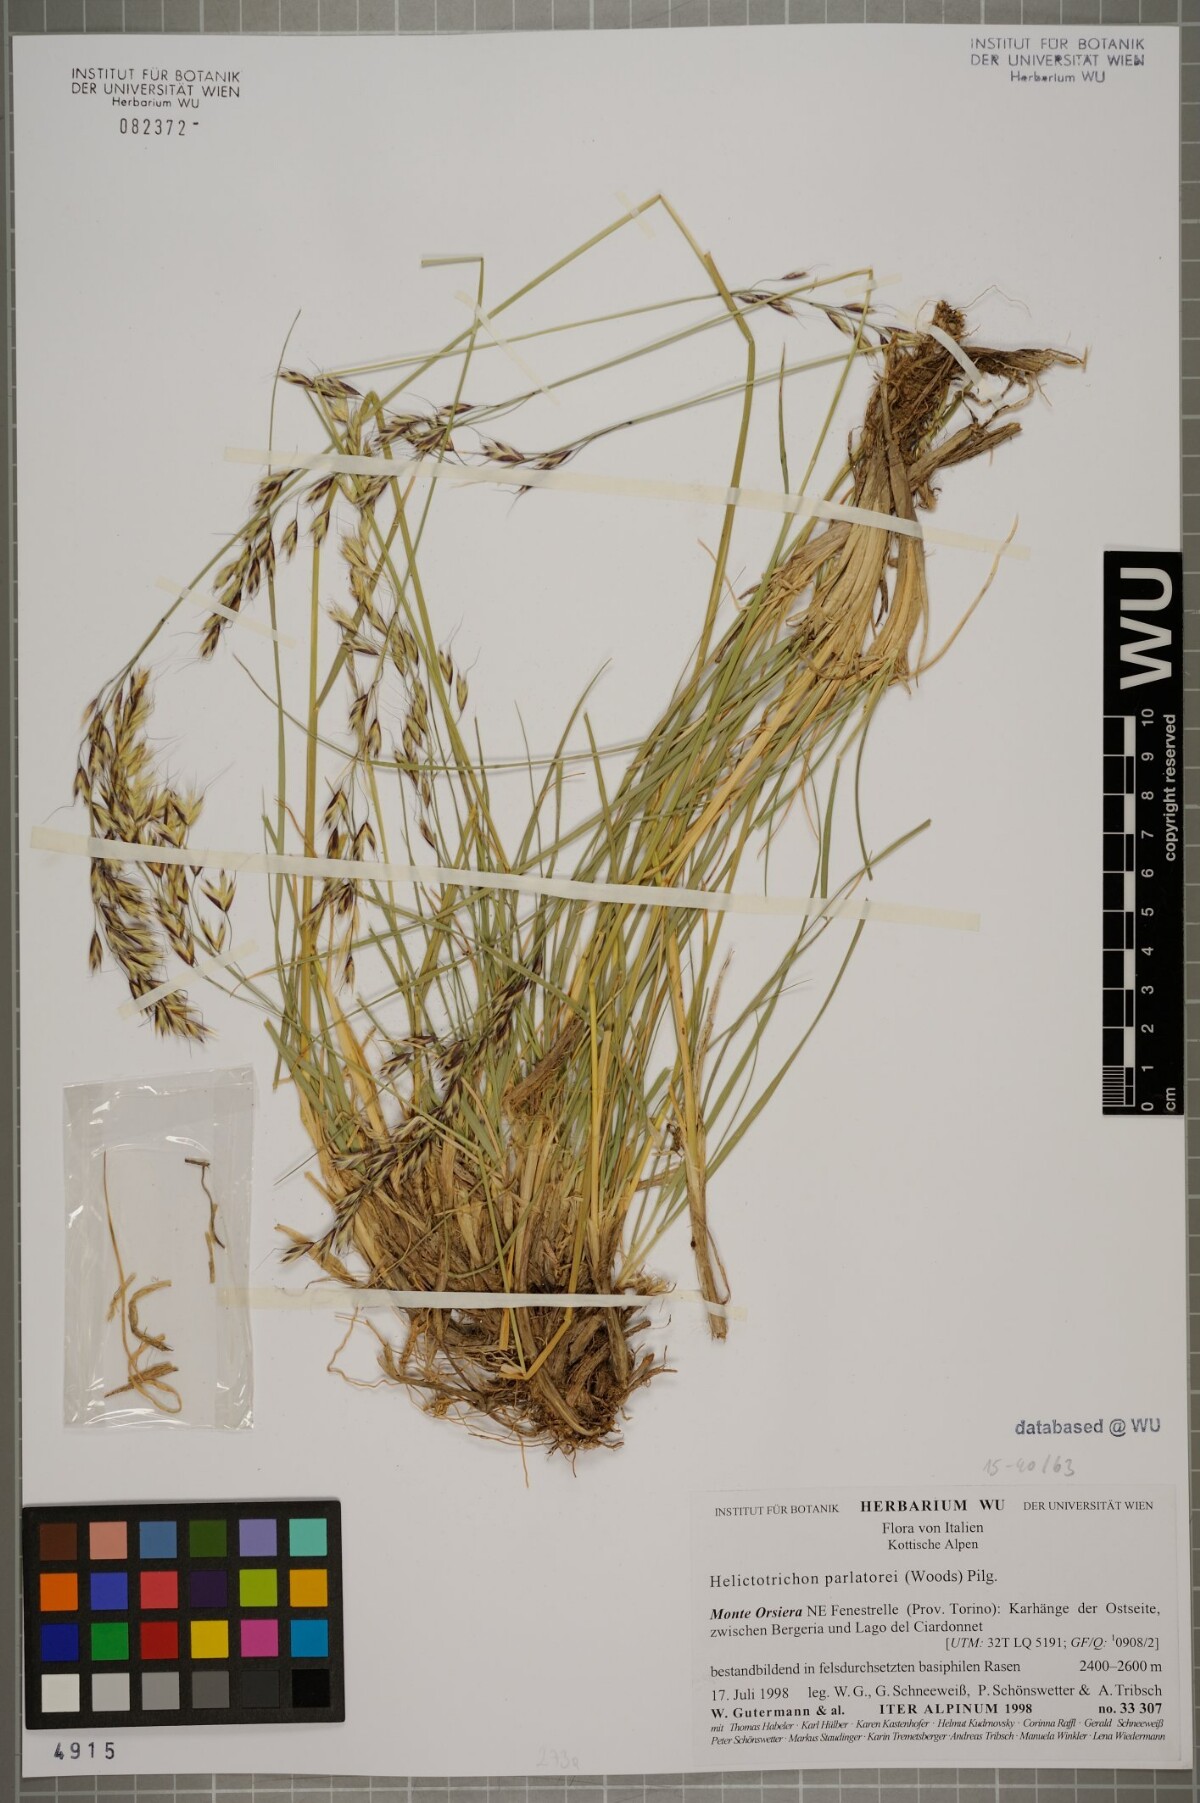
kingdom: Plantae
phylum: Tracheophyta
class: Liliopsida
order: Poales
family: Poaceae
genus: Helictotrichon
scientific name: Helictotrichon parlatorei
